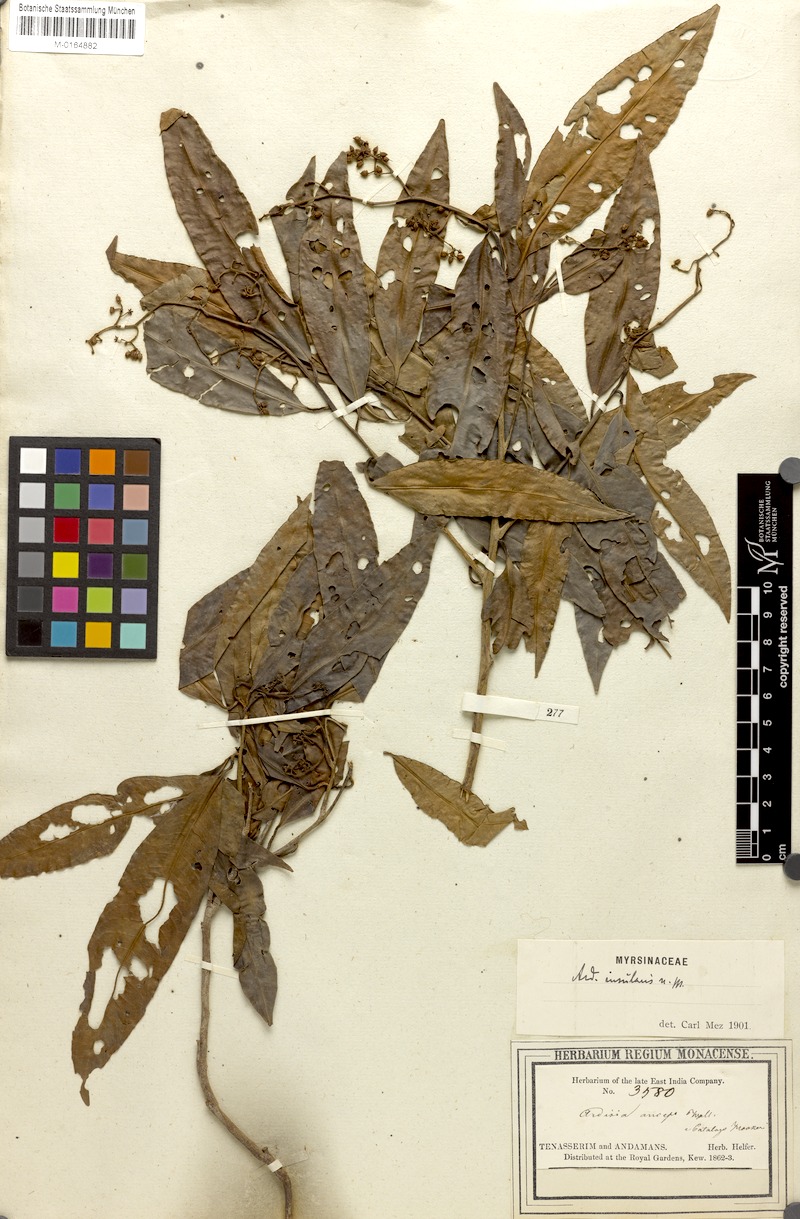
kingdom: Plantae
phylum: Tracheophyta
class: Magnoliopsida
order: Ericales
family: Primulaceae
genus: Ardisia
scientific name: Ardisia complanata
